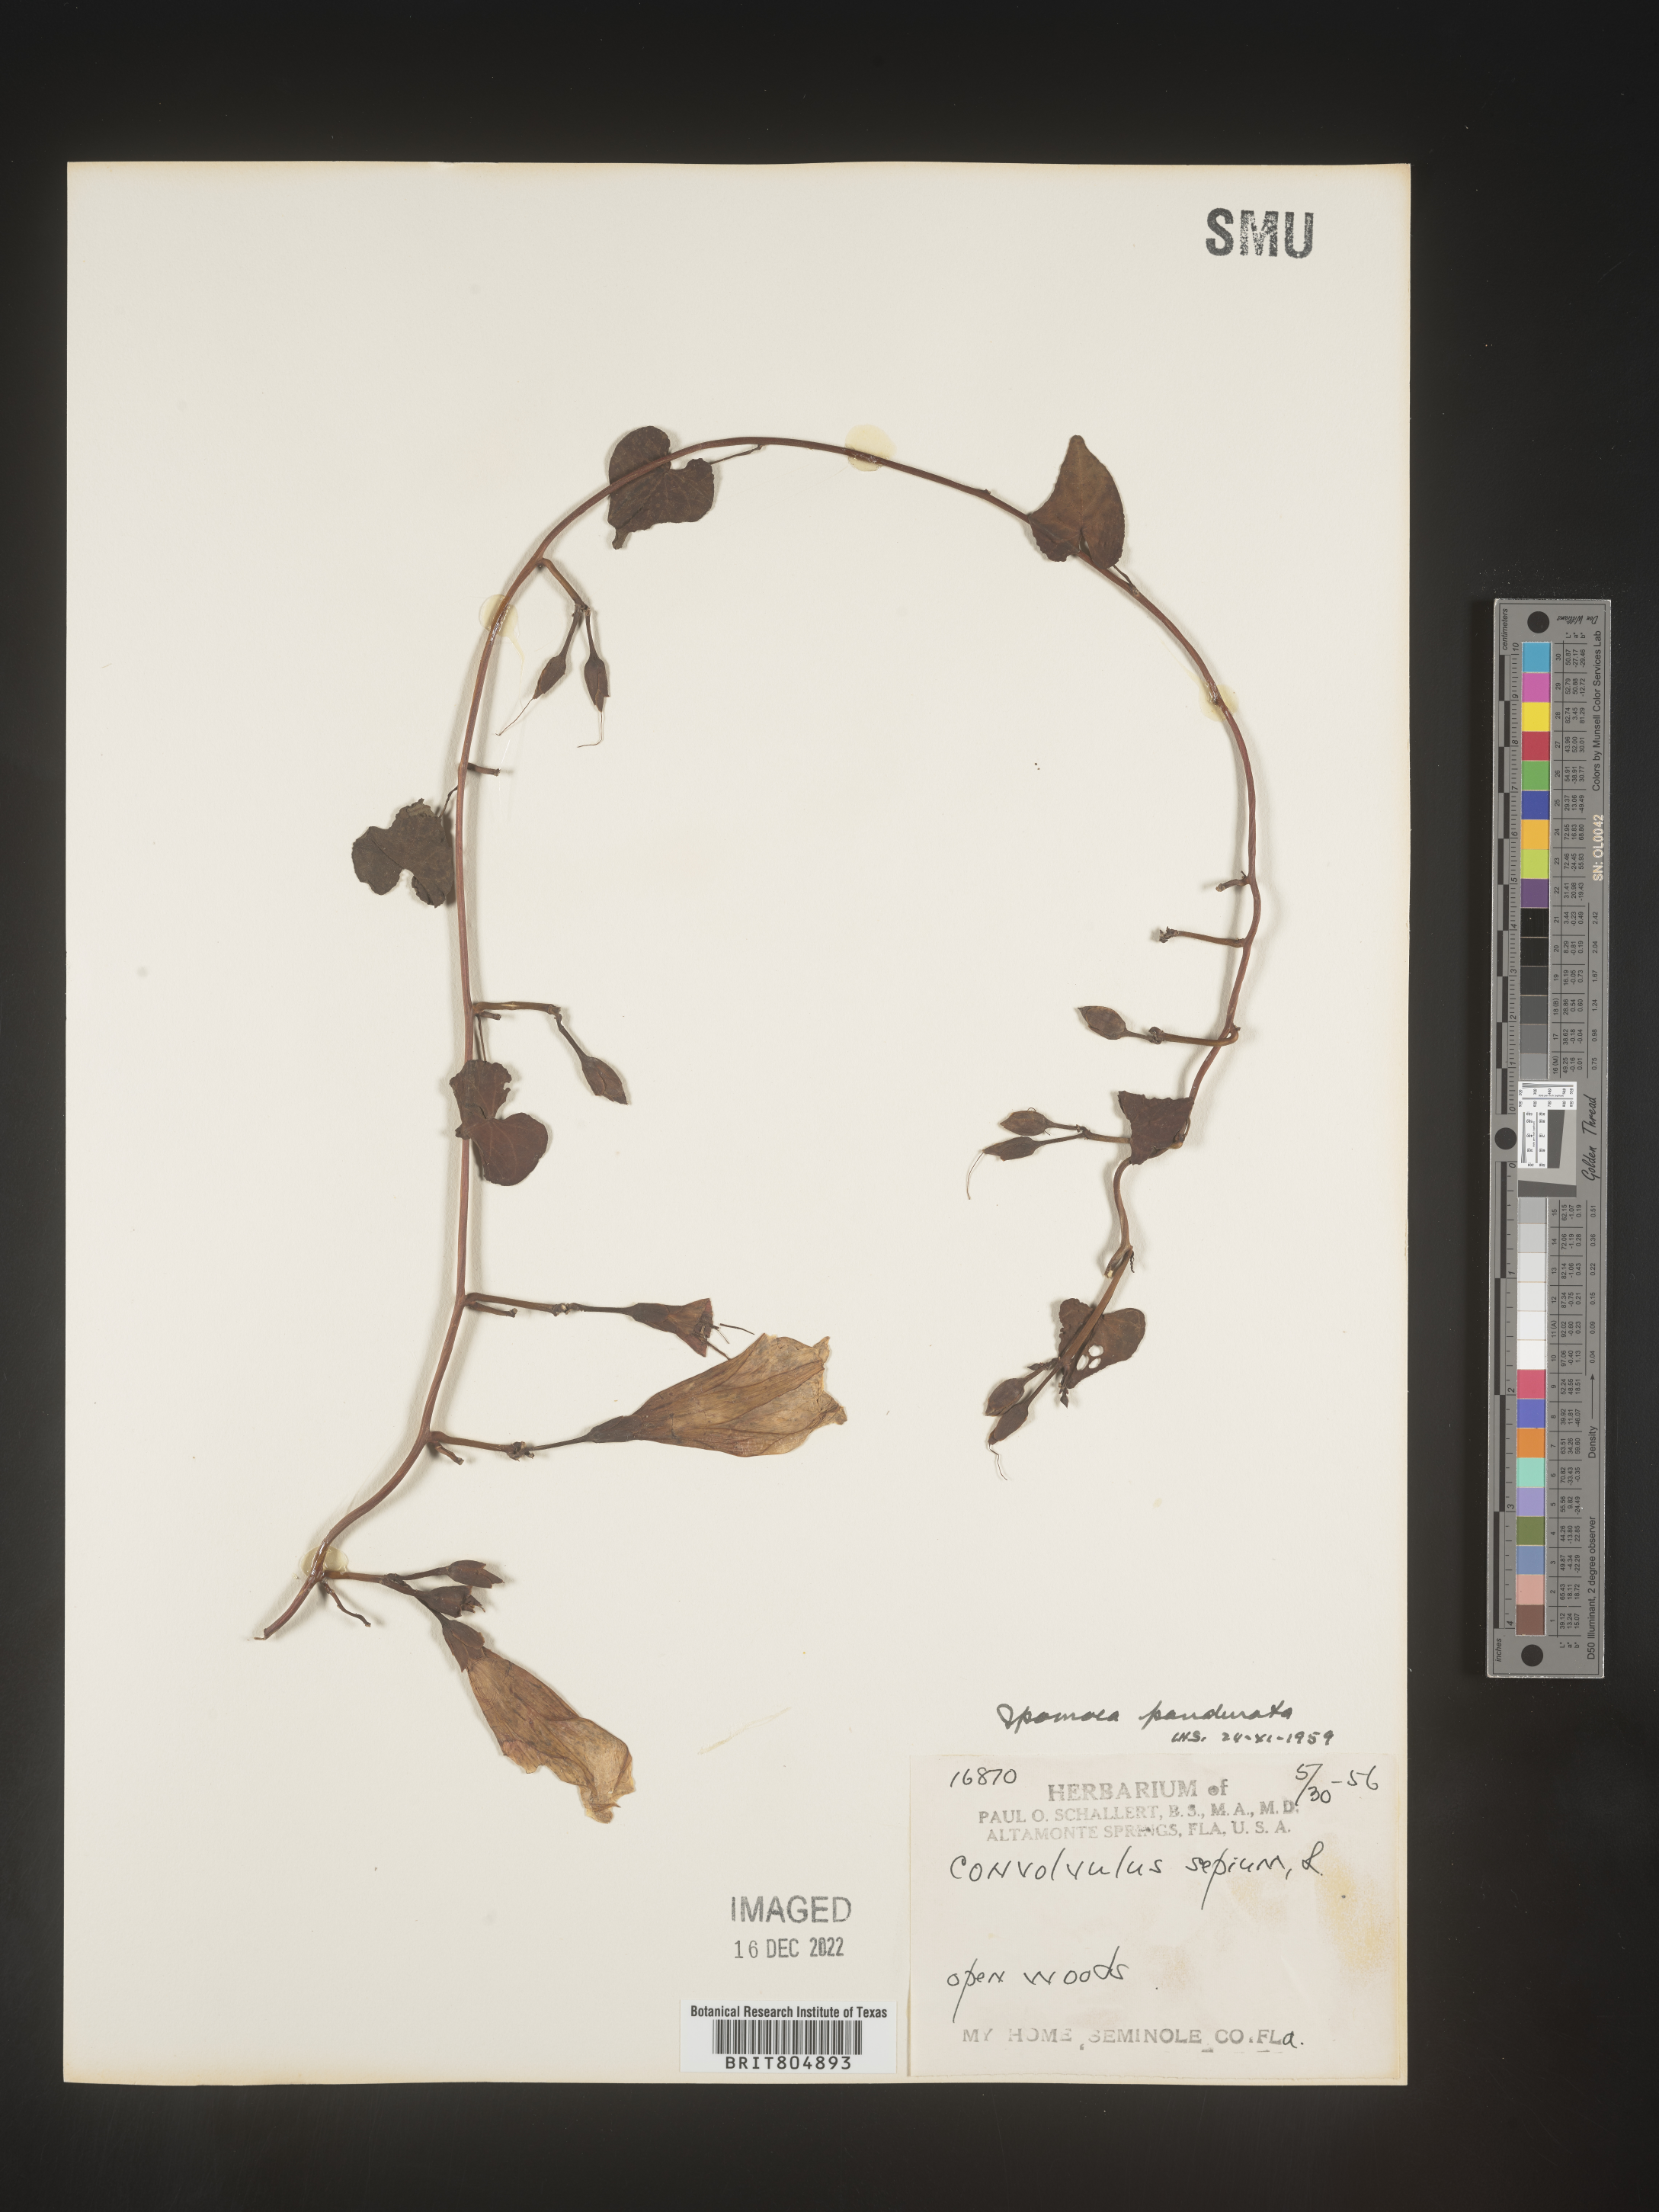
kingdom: Plantae
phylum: Tracheophyta
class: Magnoliopsida
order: Solanales
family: Convolvulaceae
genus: Ipomoea
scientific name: Ipomoea pandurata
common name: Man-of-the-earth
